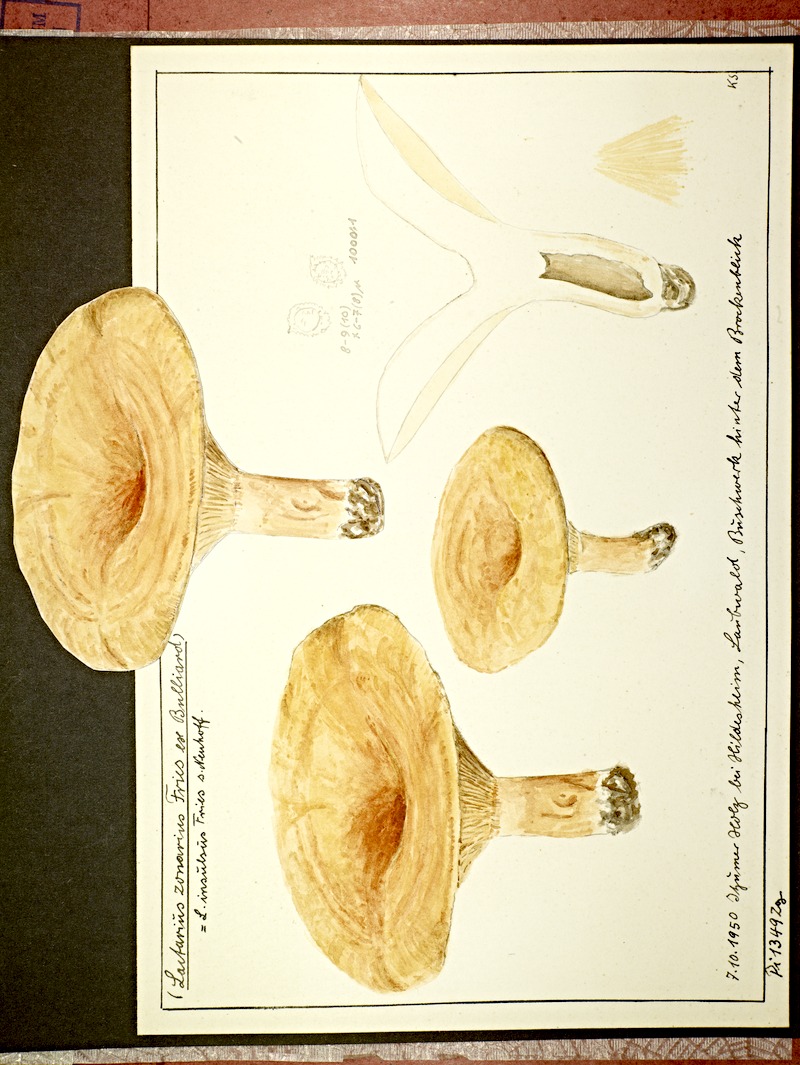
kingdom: Fungi
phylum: Basidiomycota
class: Agaricomycetes
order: Russulales
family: Russulaceae
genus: Lactarius
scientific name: Lactarius zonarius
